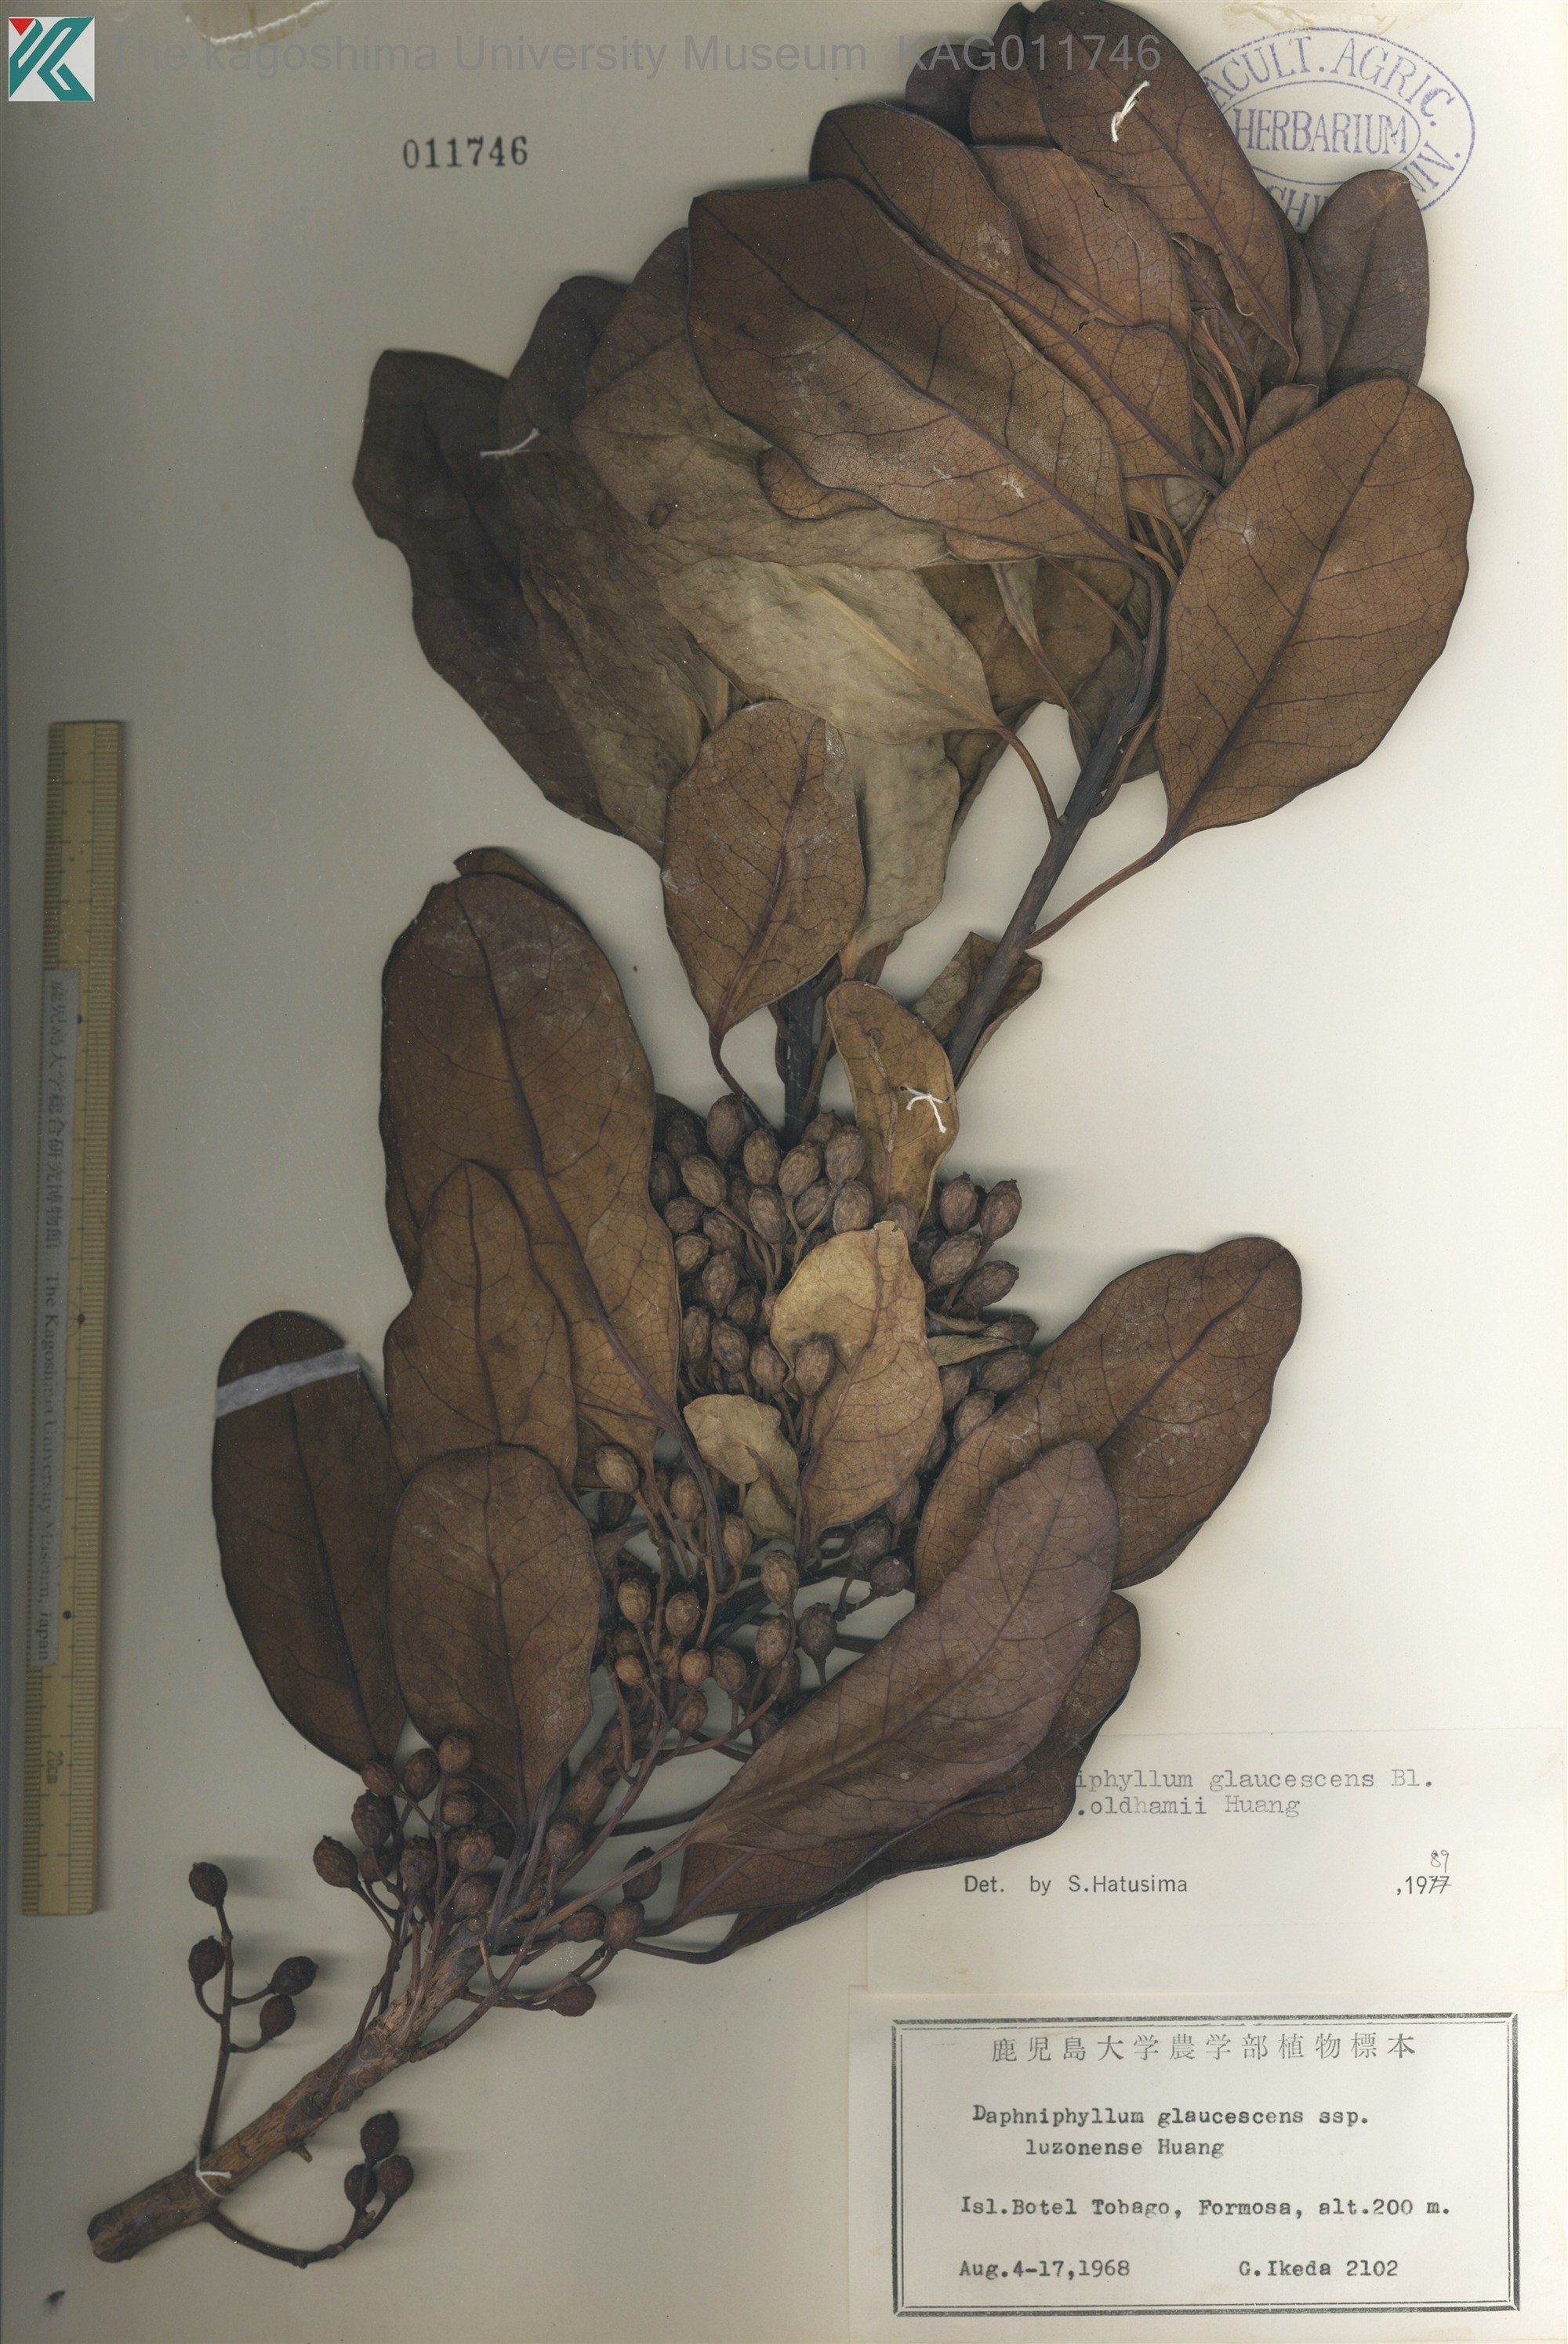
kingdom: Plantae
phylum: Tracheophyta
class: Magnoliopsida
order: Saxifragales
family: Daphniphyllaceae
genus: Daphniphyllum
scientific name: Daphniphyllum teijsmannii
